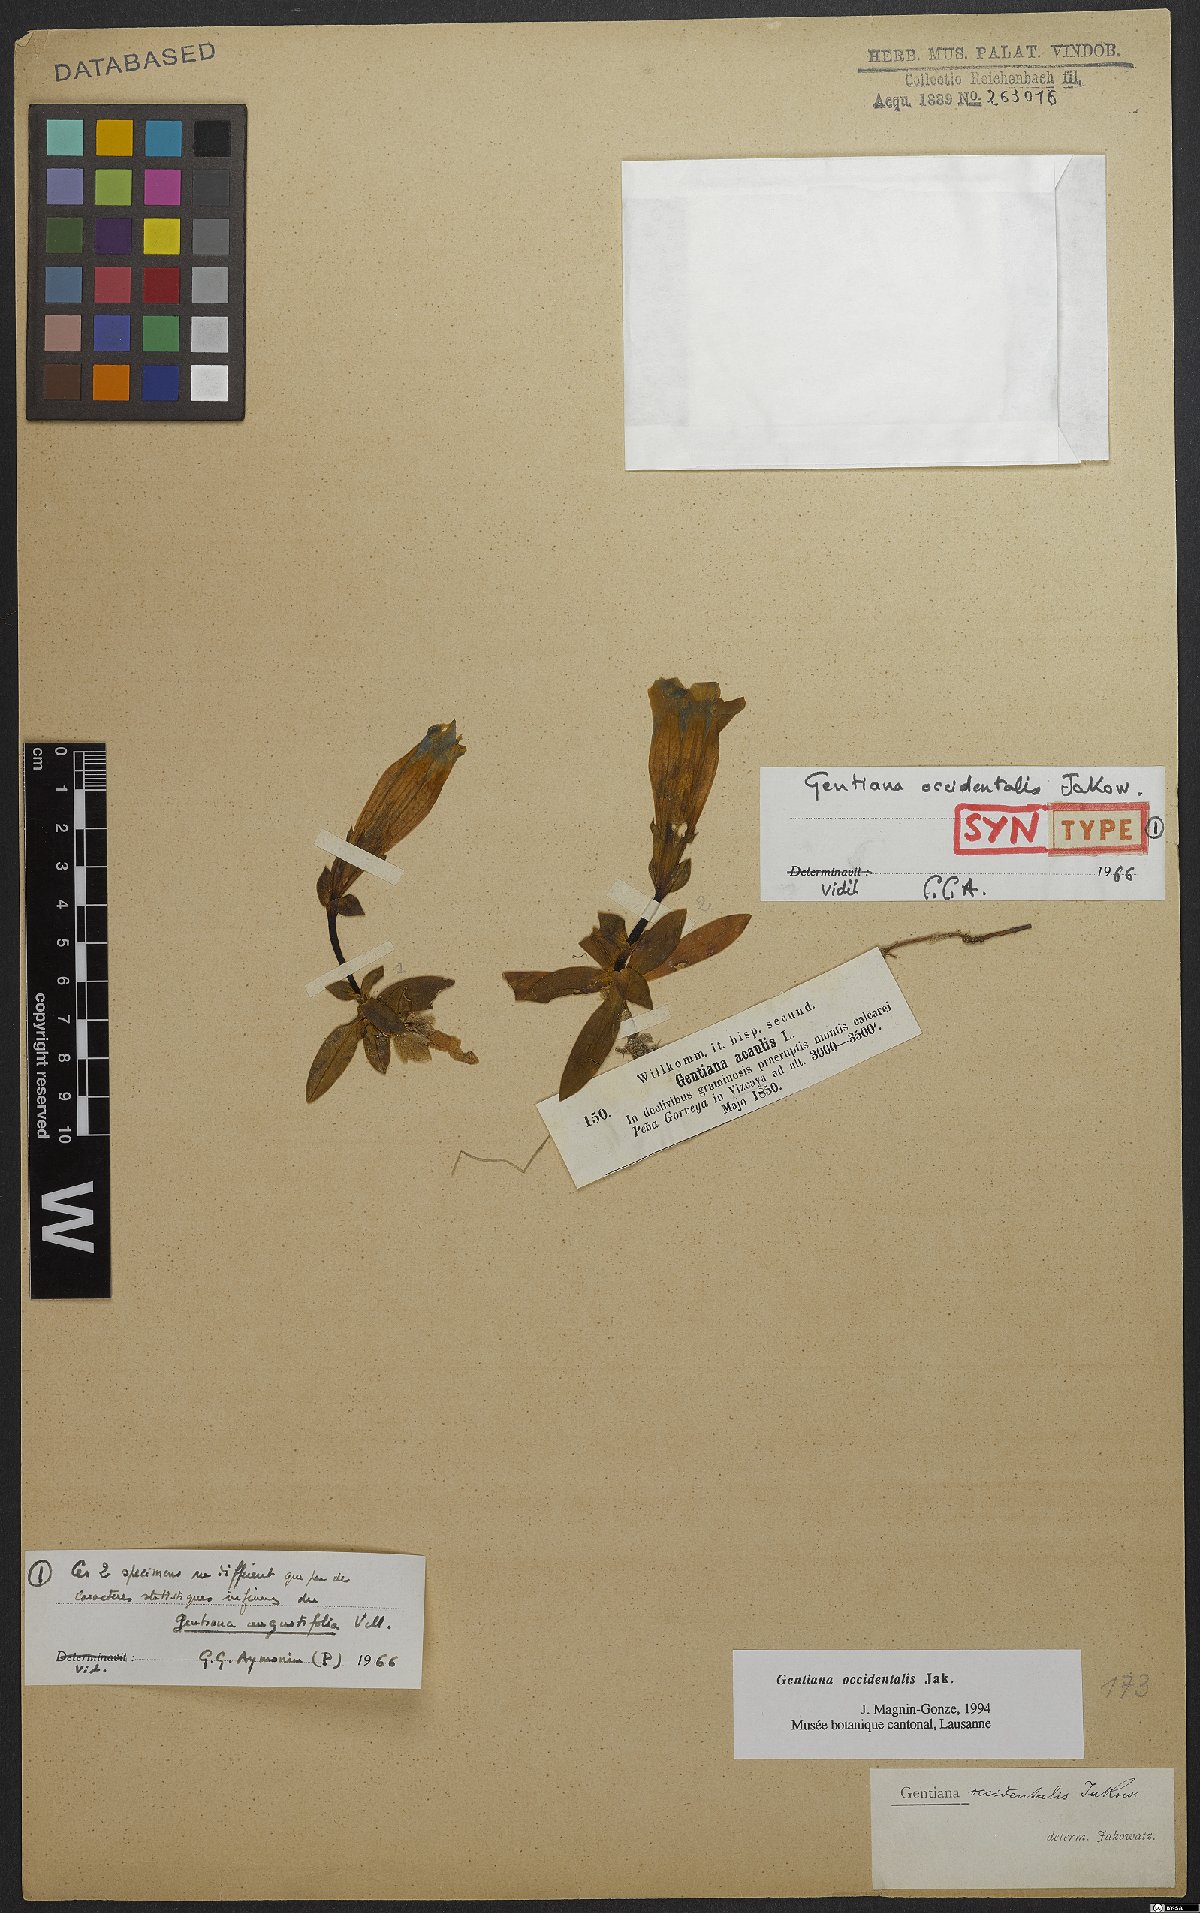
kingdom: Plantae
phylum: Tracheophyta
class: Magnoliopsida
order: Gentianales
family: Gentianaceae
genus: Gentiana
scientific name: Gentiana angustifolia
